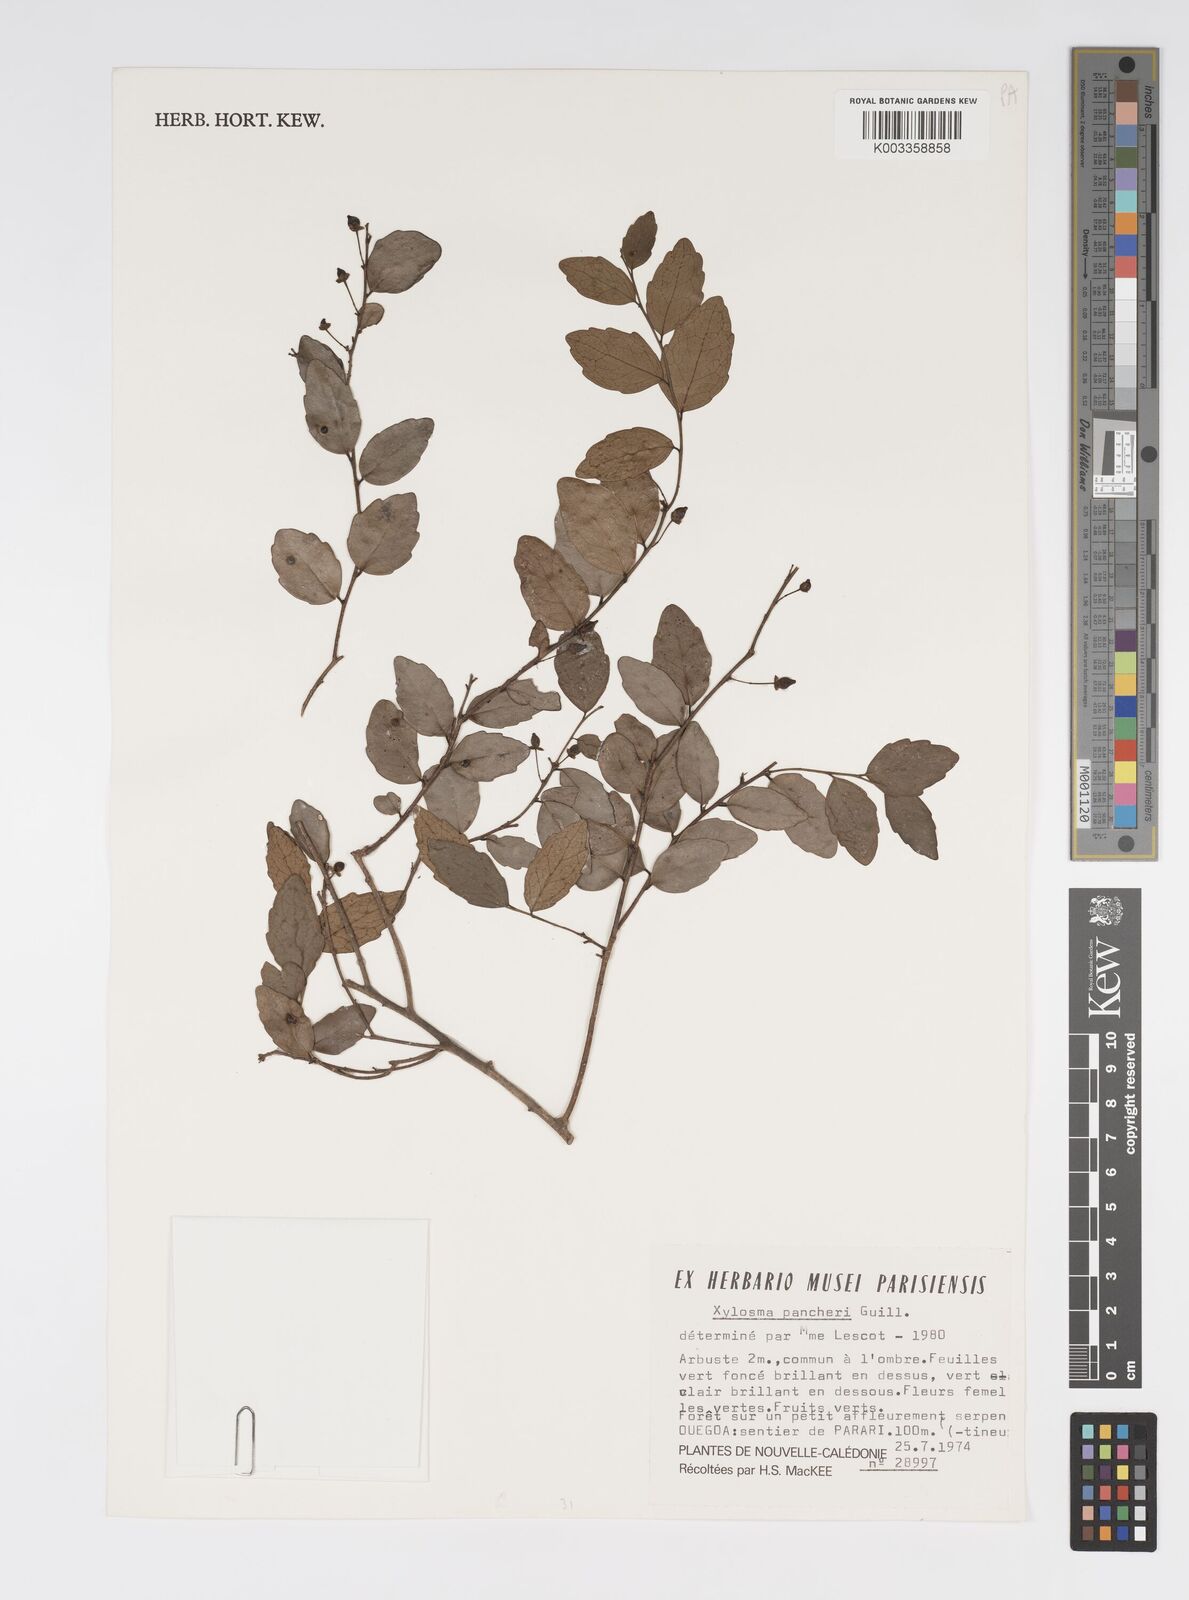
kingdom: Plantae
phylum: Tracheophyta
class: Magnoliopsida
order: Malpighiales
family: Salicaceae
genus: Xylosma
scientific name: Xylosma pancheri
